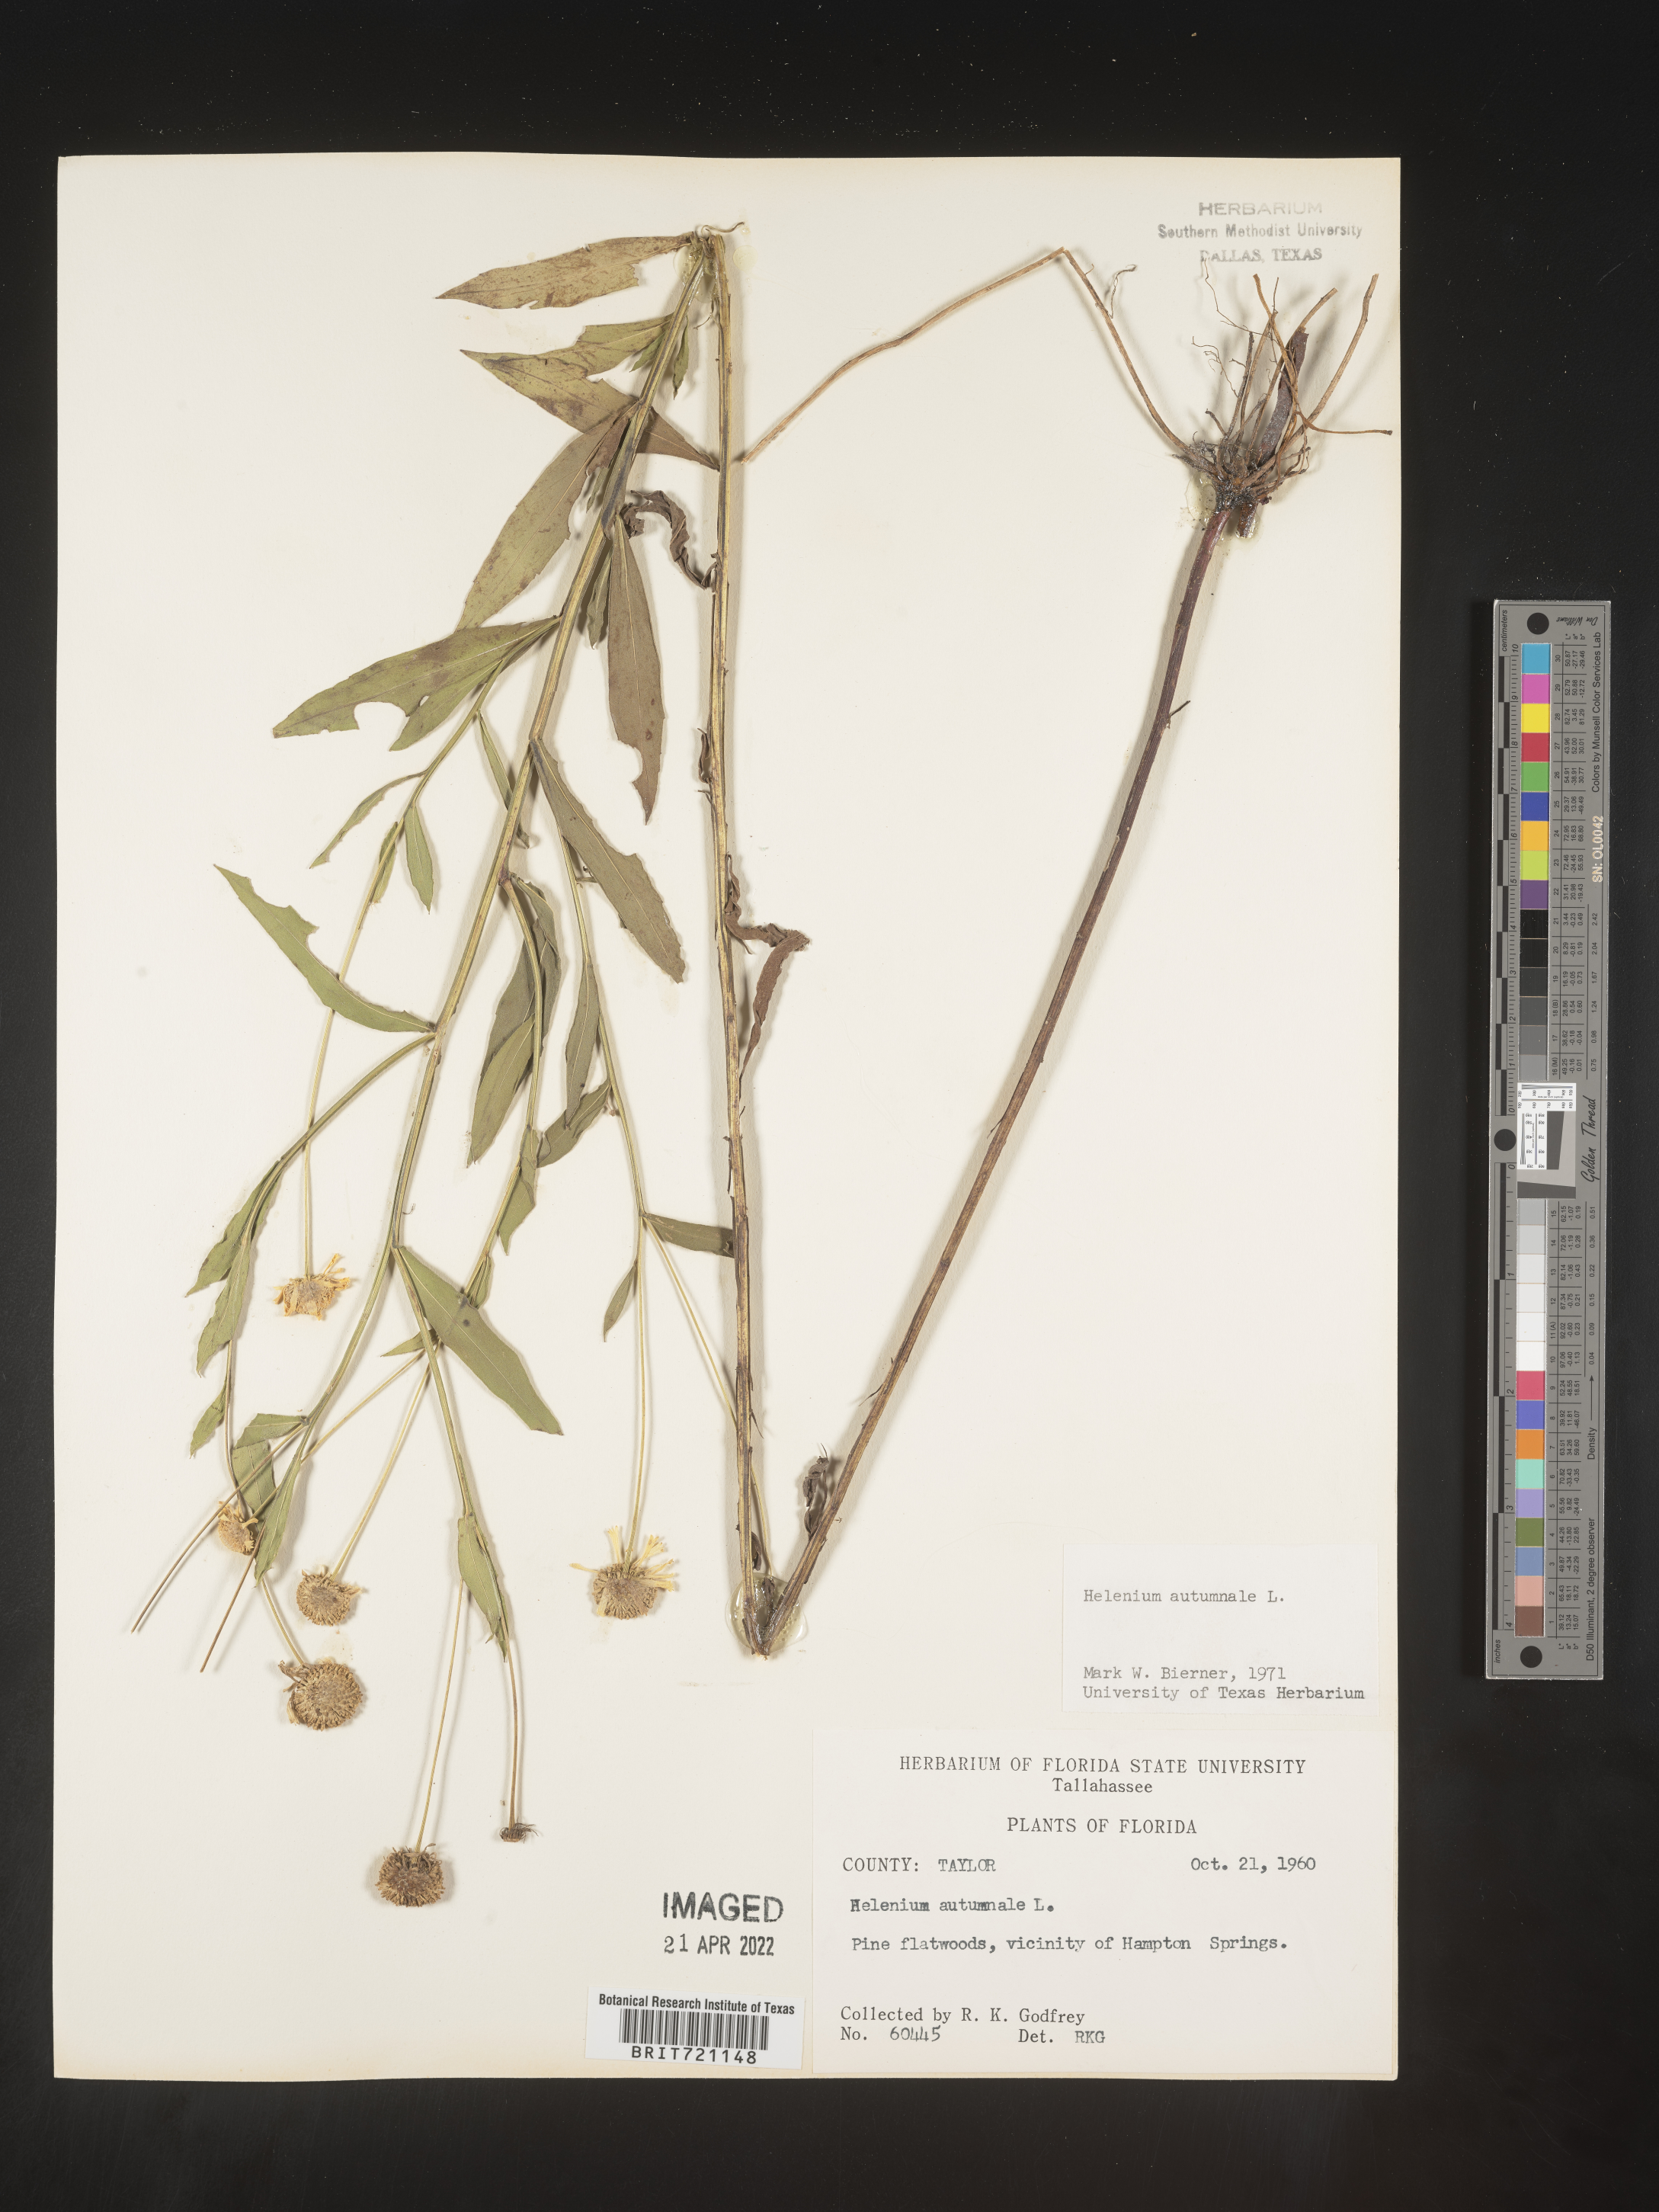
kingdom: Plantae
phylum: Tracheophyta
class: Magnoliopsida
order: Asterales
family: Asteraceae
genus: Helenium
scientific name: Helenium autumnale
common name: Sneezeweed
